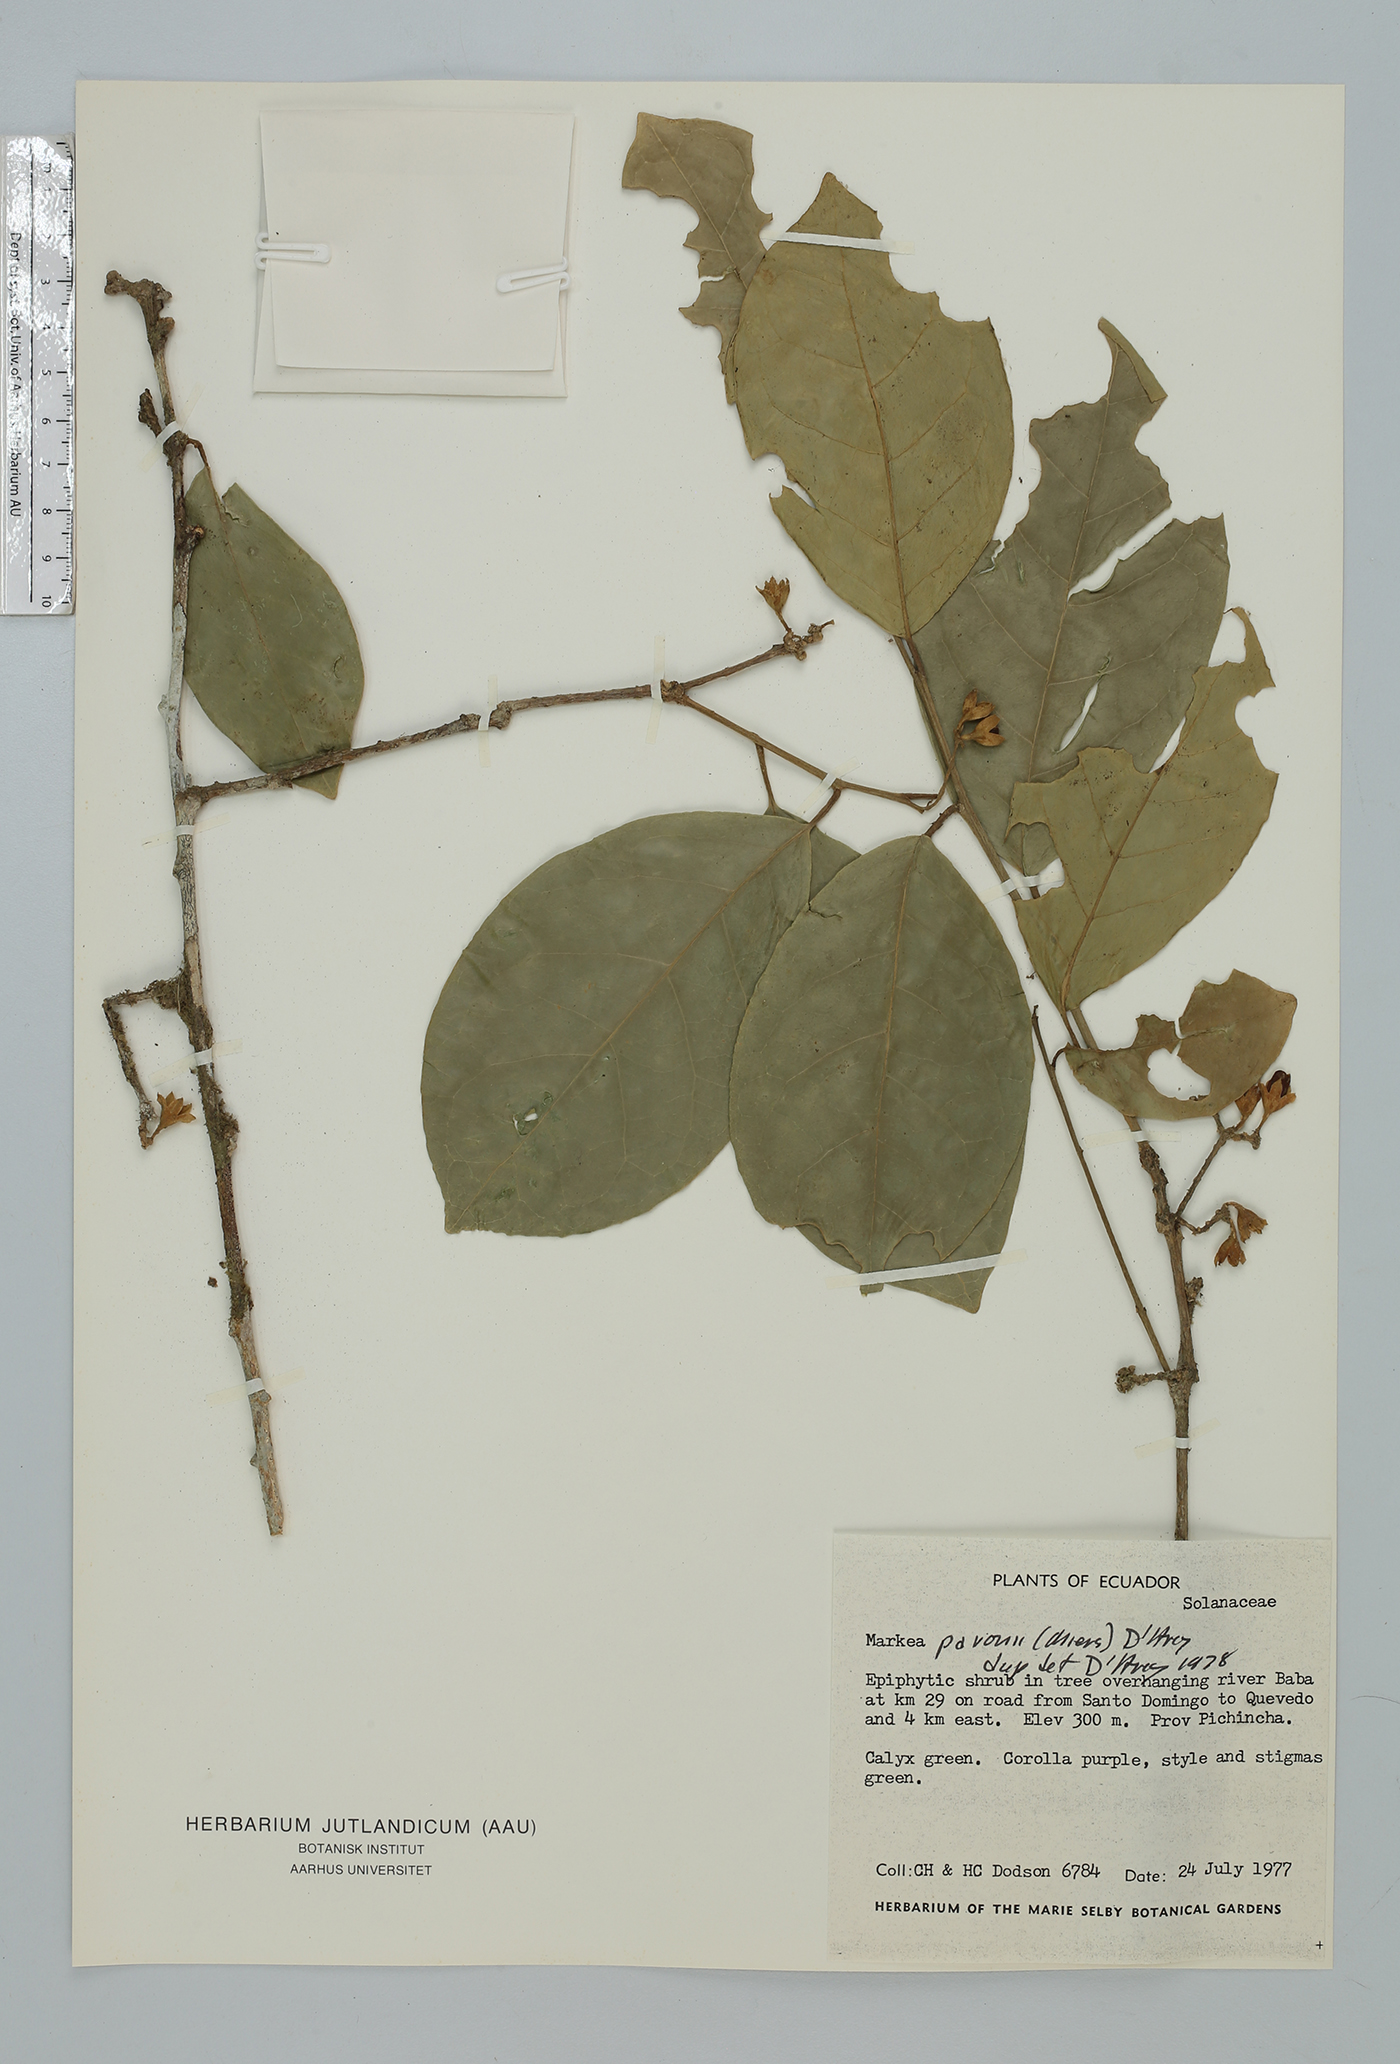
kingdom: Plantae
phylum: Tracheophyta
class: Magnoliopsida
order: Solanales
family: Solanaceae
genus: Markea
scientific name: Markea pavonii
